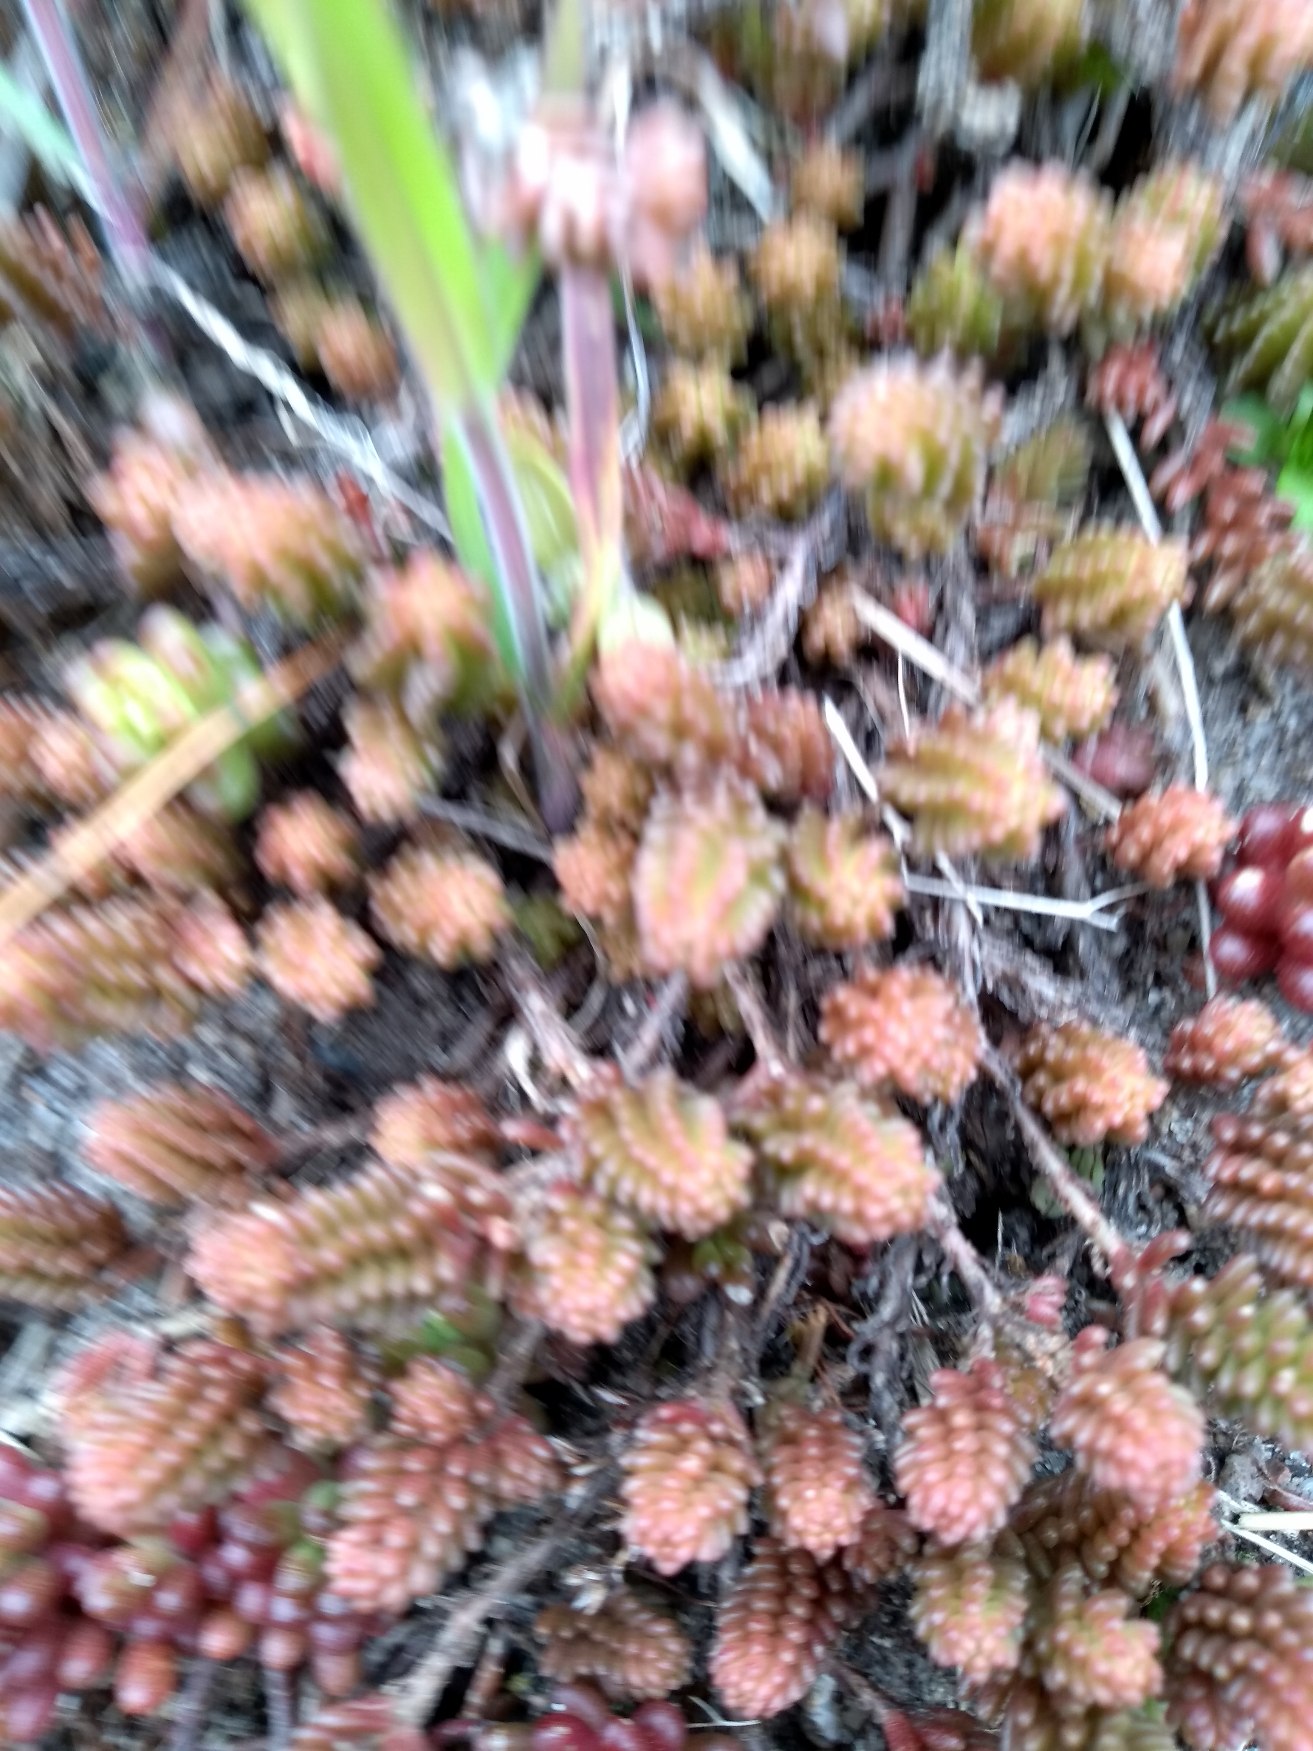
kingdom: Plantae
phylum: Tracheophyta
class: Magnoliopsida
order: Saxifragales
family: Crassulaceae
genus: Sedum
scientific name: Sedum sexangulare
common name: Seksradet stenurt
